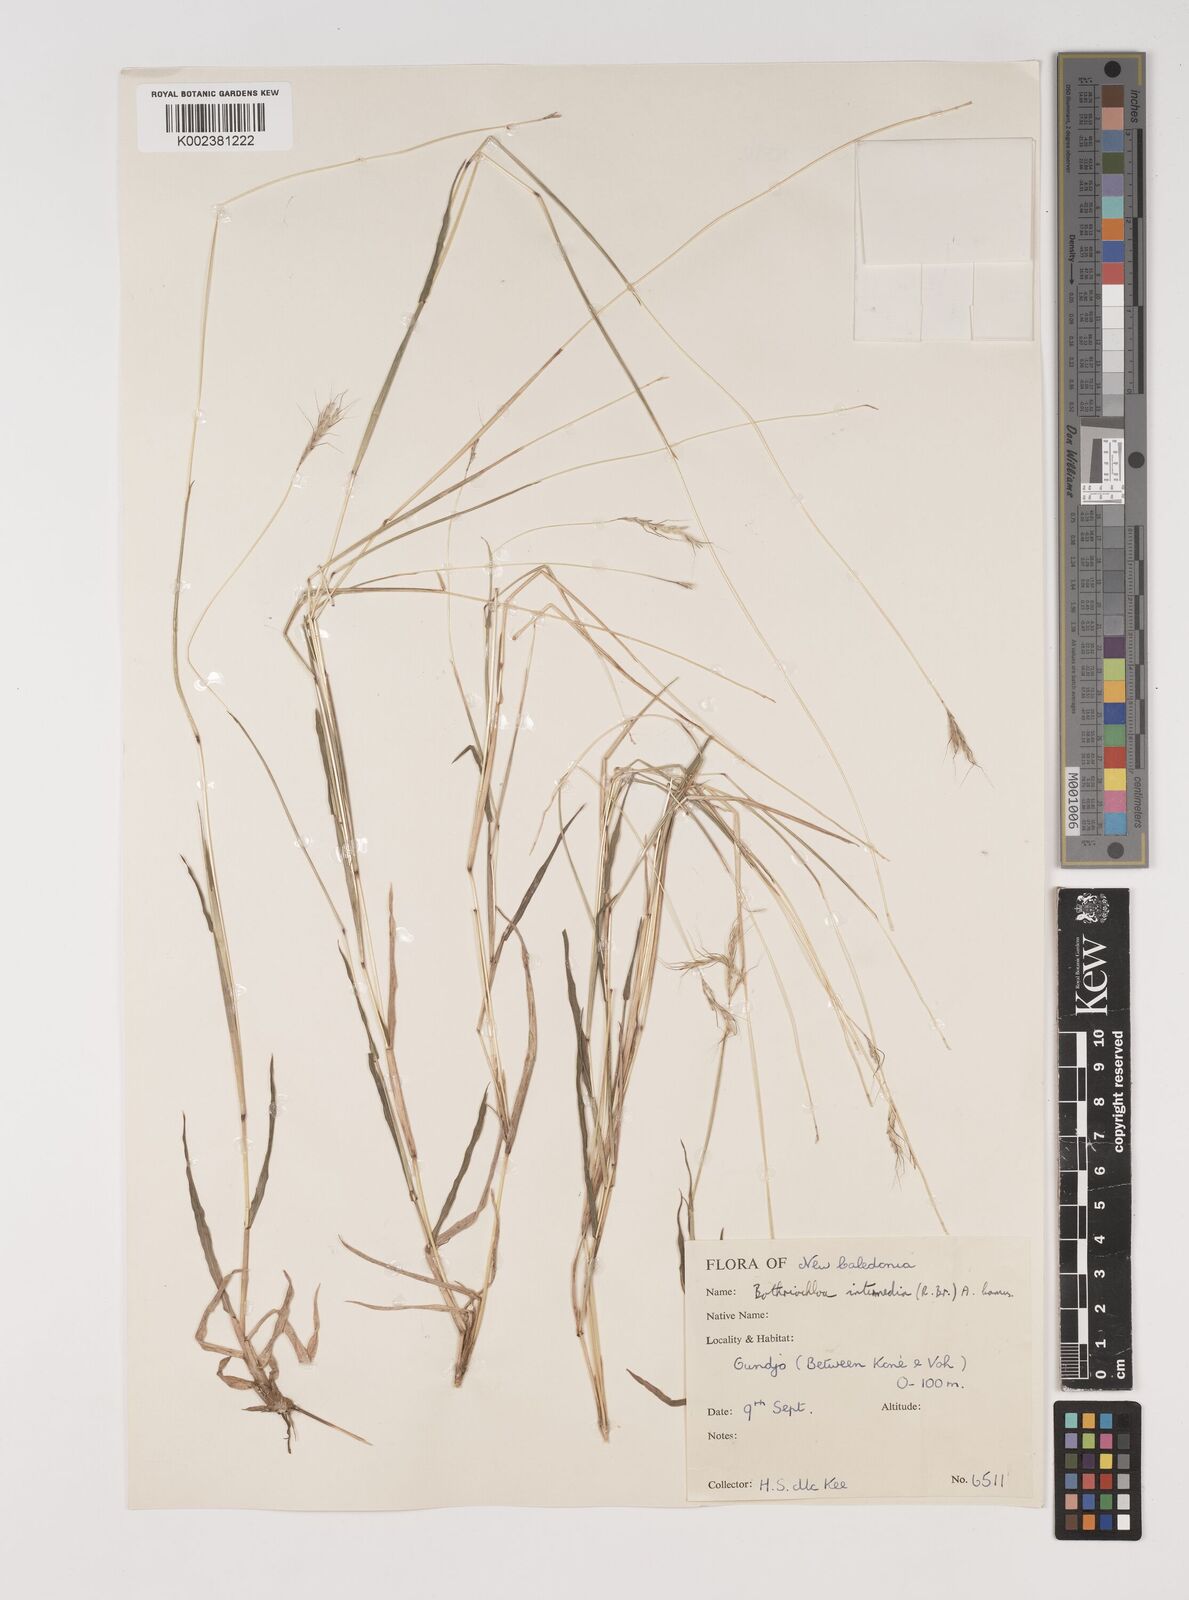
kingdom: Plantae
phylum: Tracheophyta
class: Liliopsida
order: Poales
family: Poaceae
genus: Bothriochloa
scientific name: Bothriochloa bladhii
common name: Caucasian bluestem
